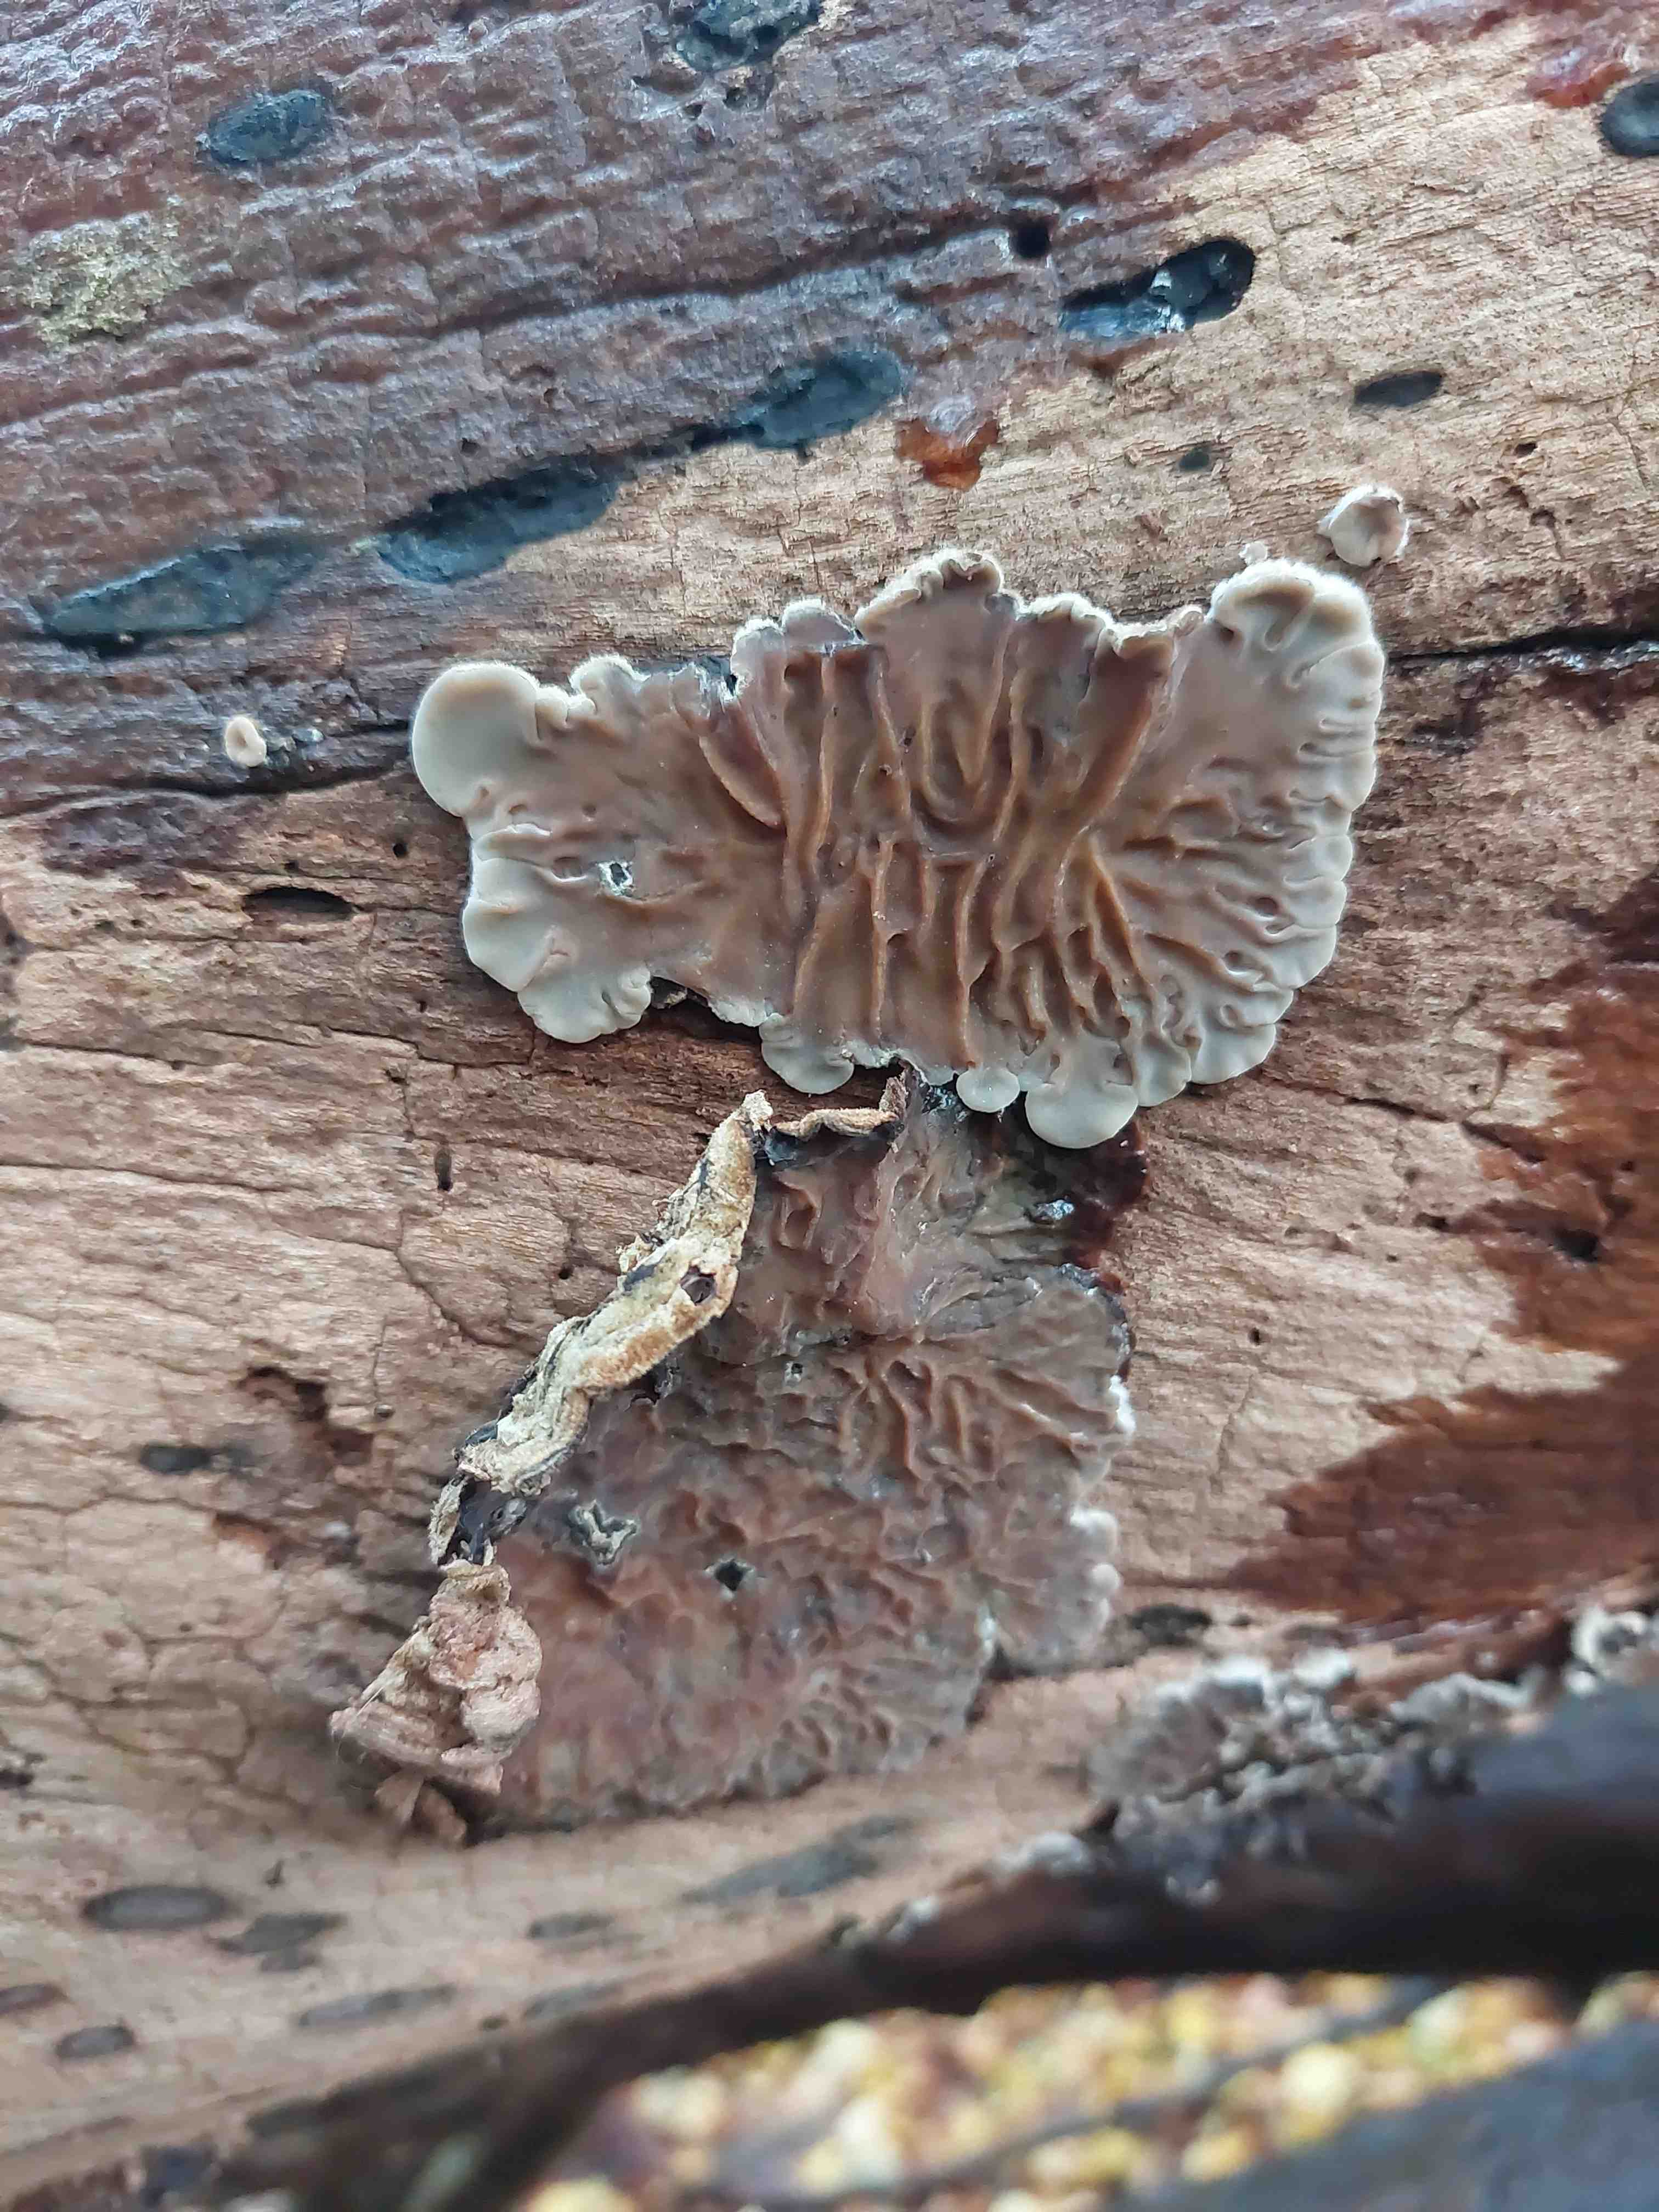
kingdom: Fungi
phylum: Basidiomycota
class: Agaricomycetes
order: Auriculariales
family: Auriculariaceae
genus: Auricularia
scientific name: Auricularia mesenterica
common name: håret judasøre
